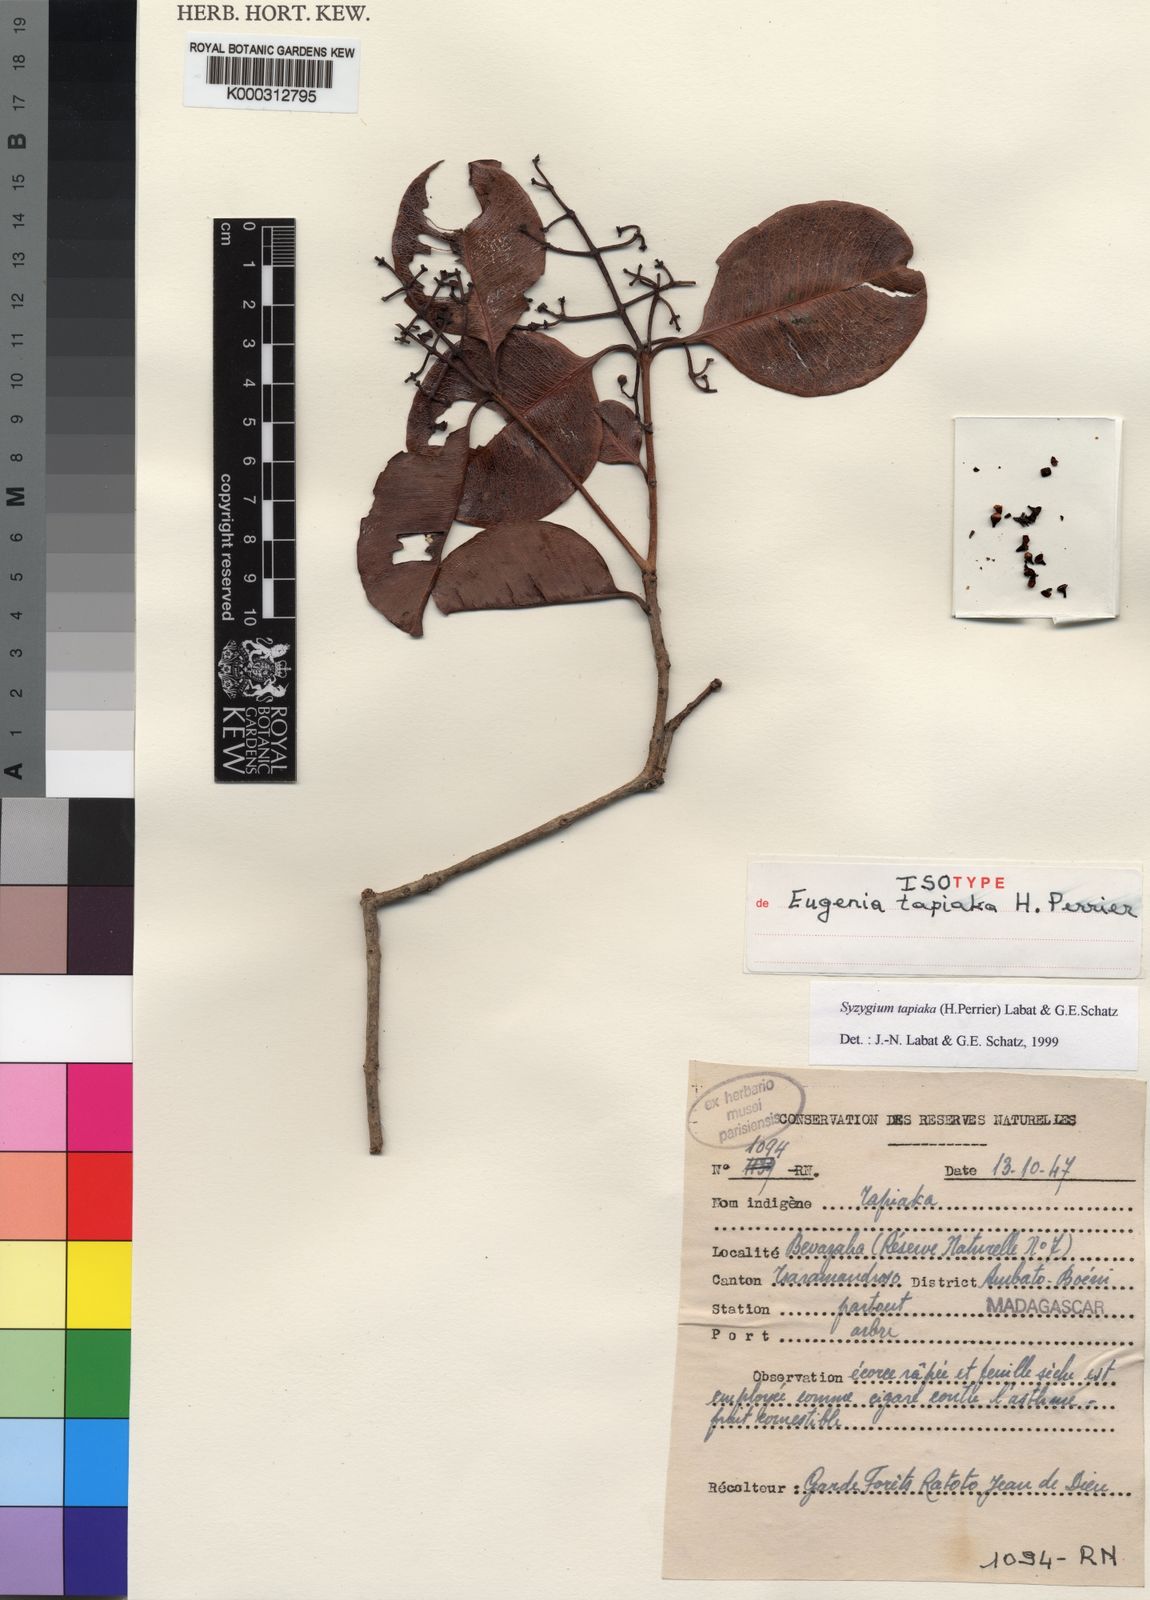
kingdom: Plantae
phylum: Tracheophyta
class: Magnoliopsida
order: Myrtales
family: Myrtaceae
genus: Syzygium
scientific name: Syzygium tapiaka
